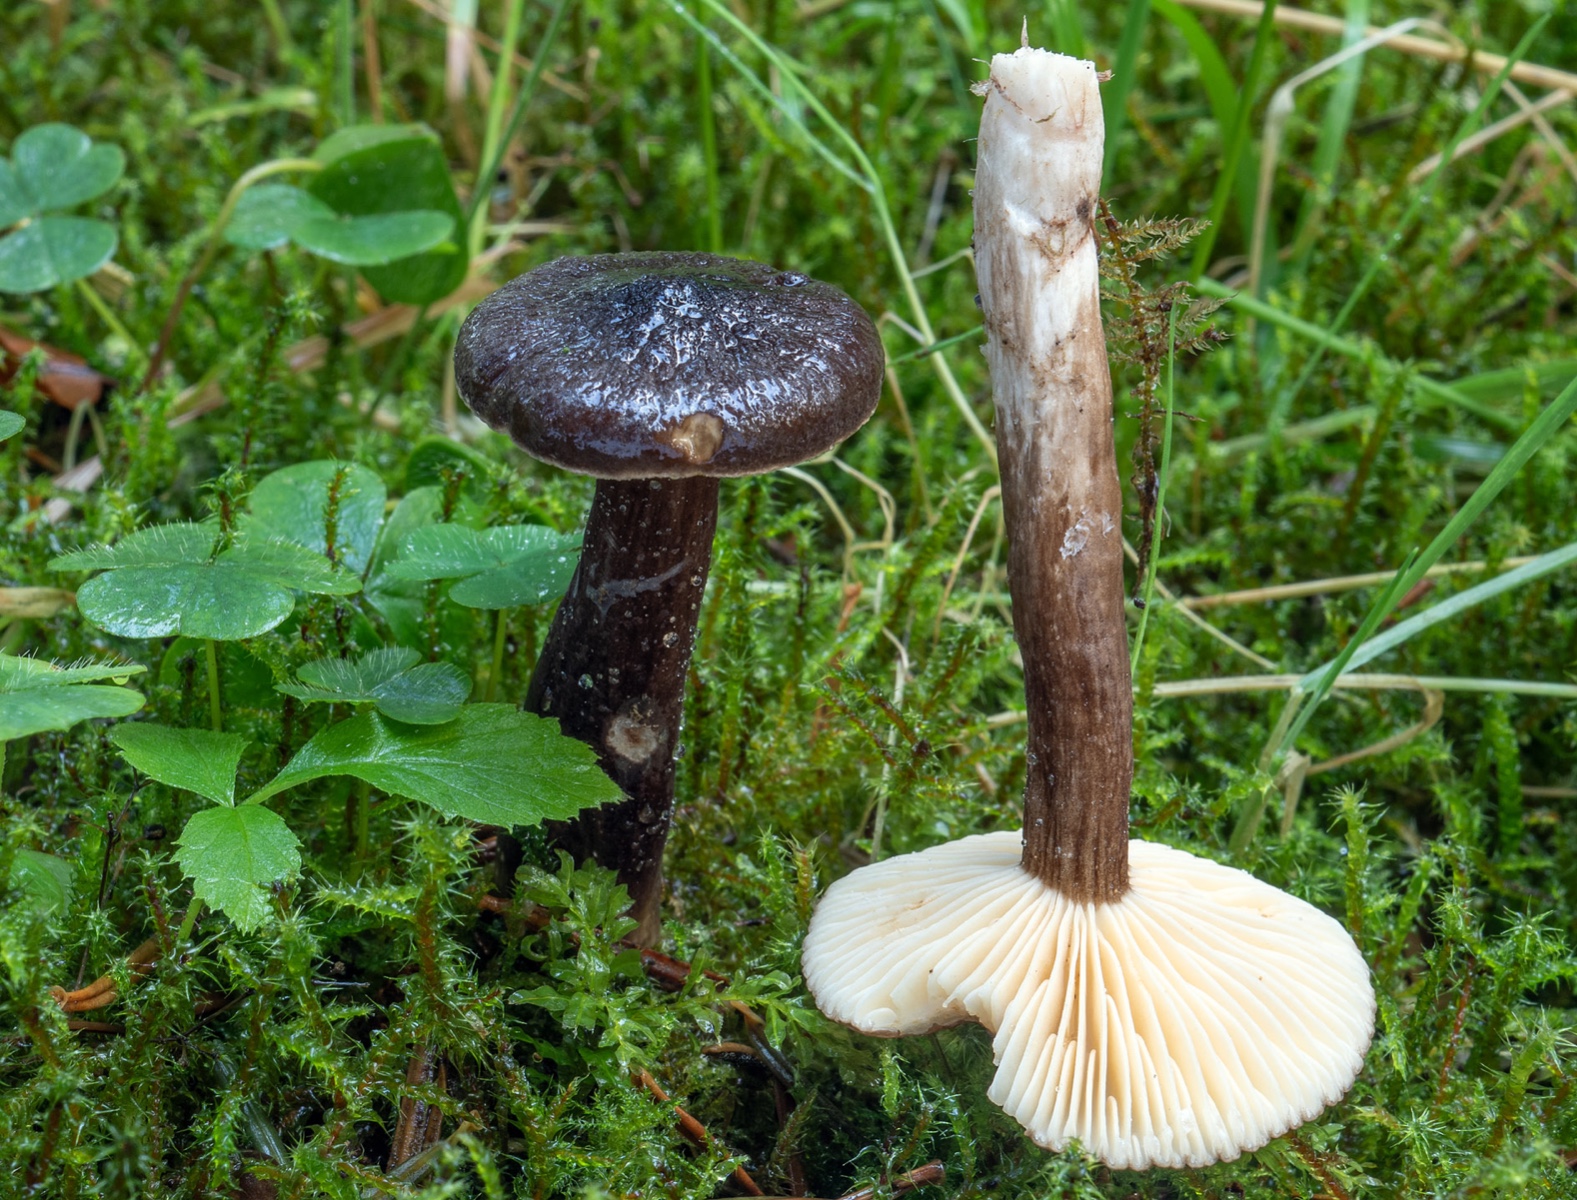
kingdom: Fungi
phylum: Basidiomycota
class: Agaricomycetes
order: Russulales
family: Russulaceae
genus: Lactarius
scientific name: Lactarius lignyotus
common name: fløjls-mælkehat
